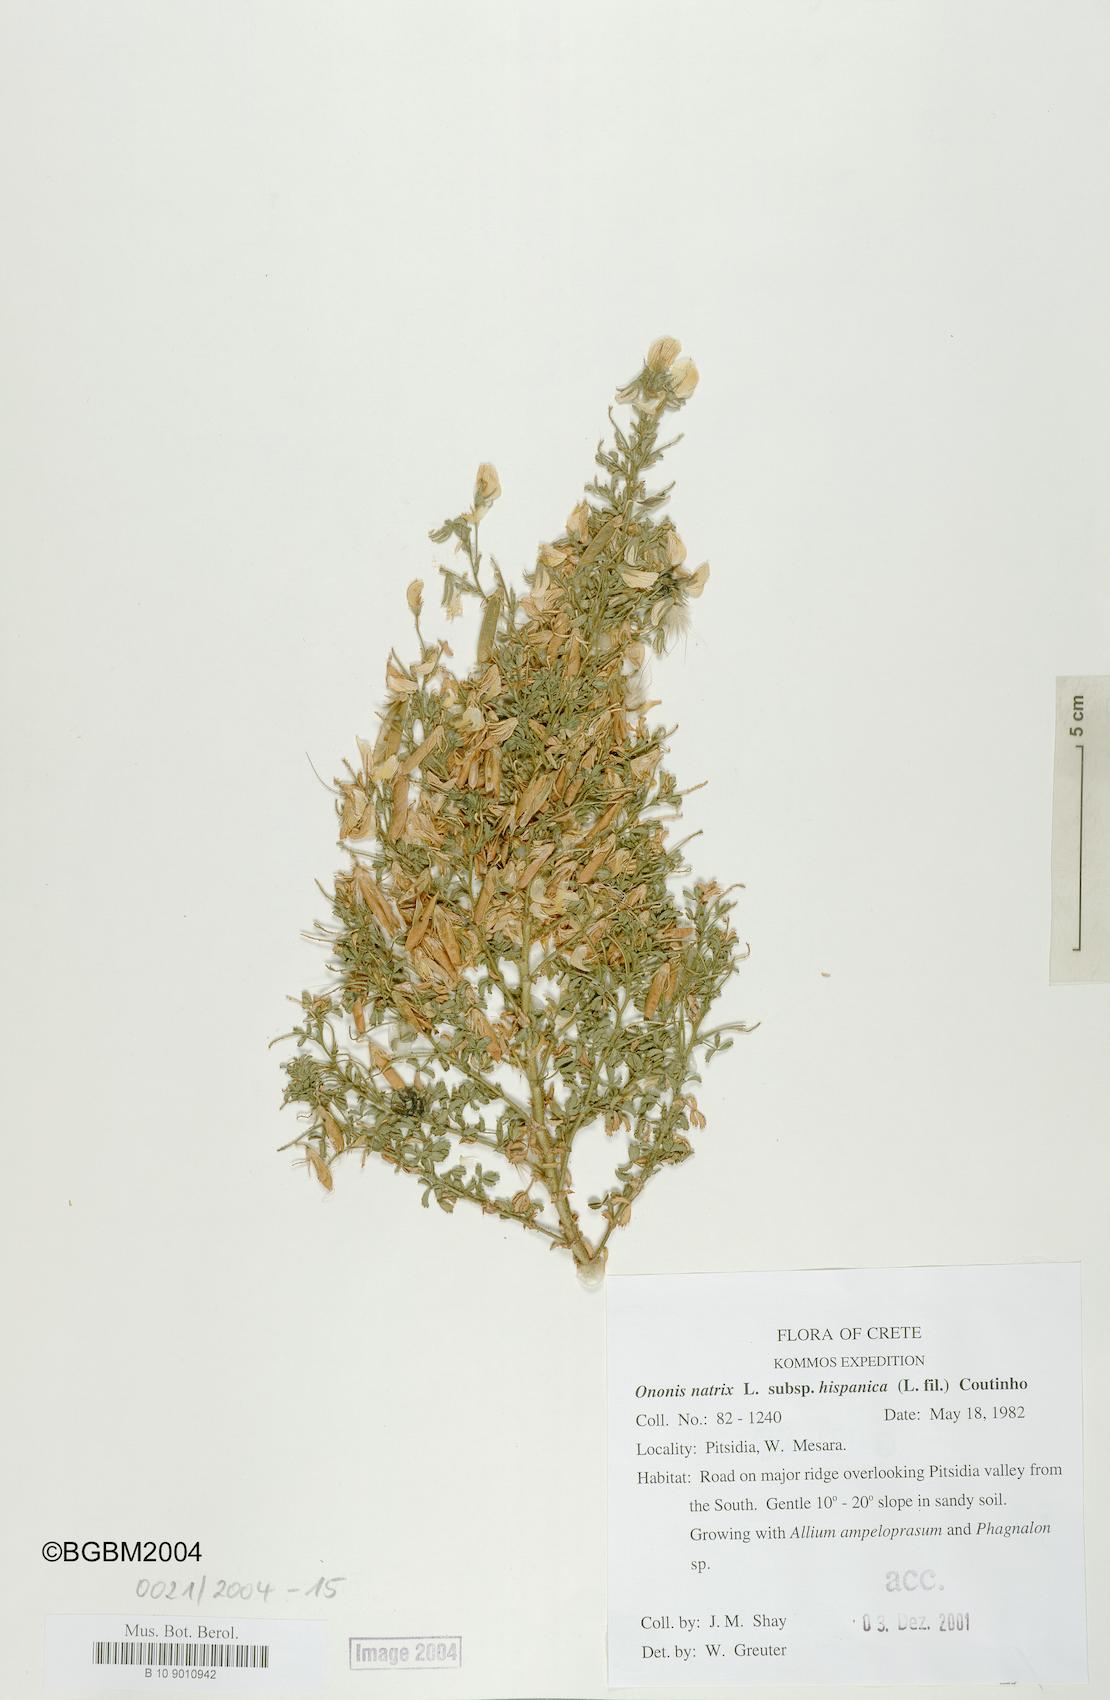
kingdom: Plantae
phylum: Tracheophyta
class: Magnoliopsida
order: Fabales
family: Fabaceae
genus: Ononis
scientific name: Ononis natrix
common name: Yellow restharrow
